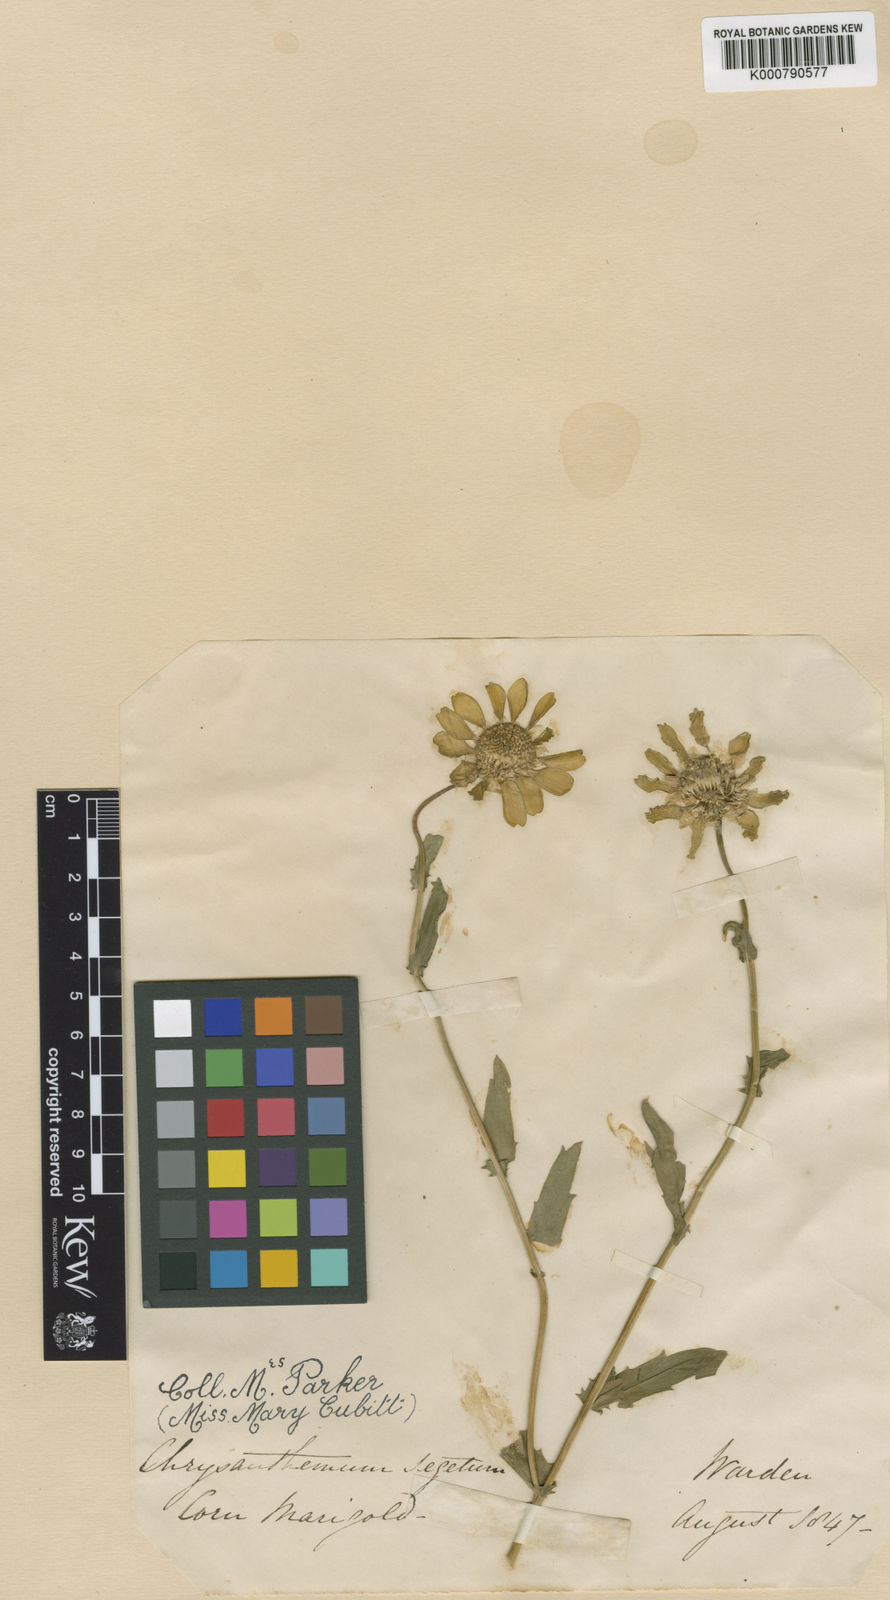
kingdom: Plantae
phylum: Tracheophyta
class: Magnoliopsida
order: Asterales
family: Asteraceae
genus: Glebionis
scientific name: Glebionis
